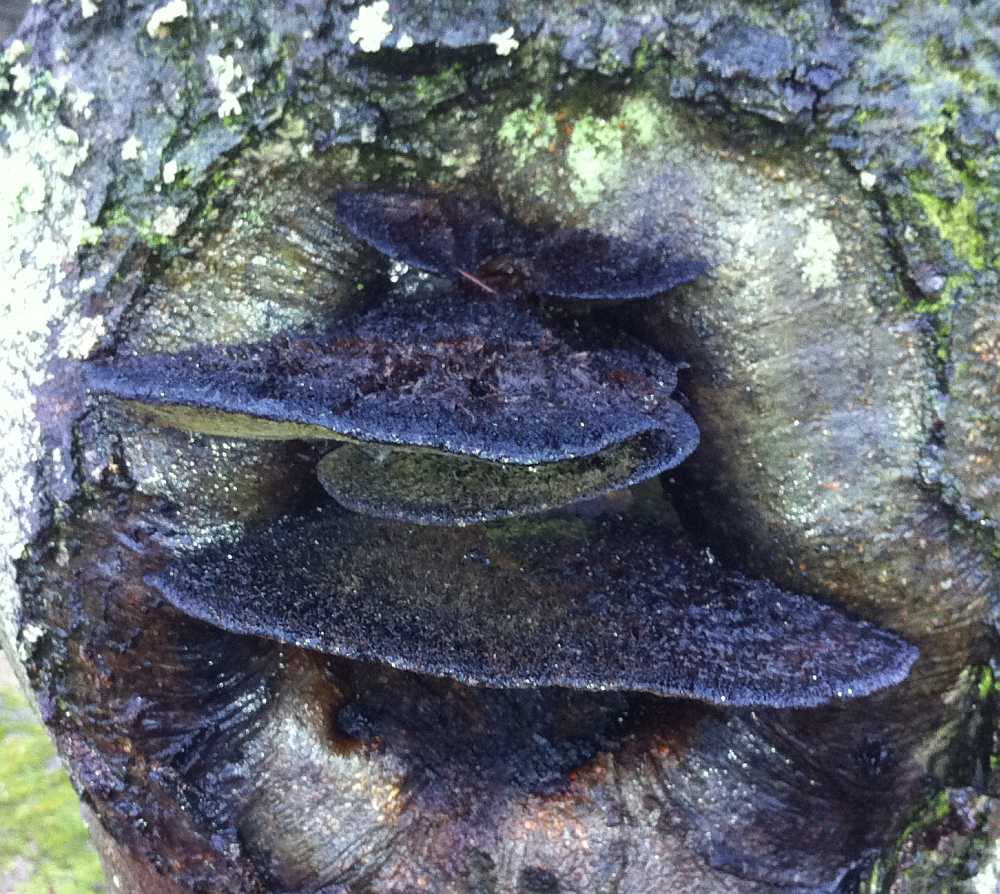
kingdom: Fungi
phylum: Basidiomycota
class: Agaricomycetes
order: Hymenochaetales
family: Hymenochaetaceae
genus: Inonotus
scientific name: Inonotus cuticularis
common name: kroghåret spejlporesvamp
